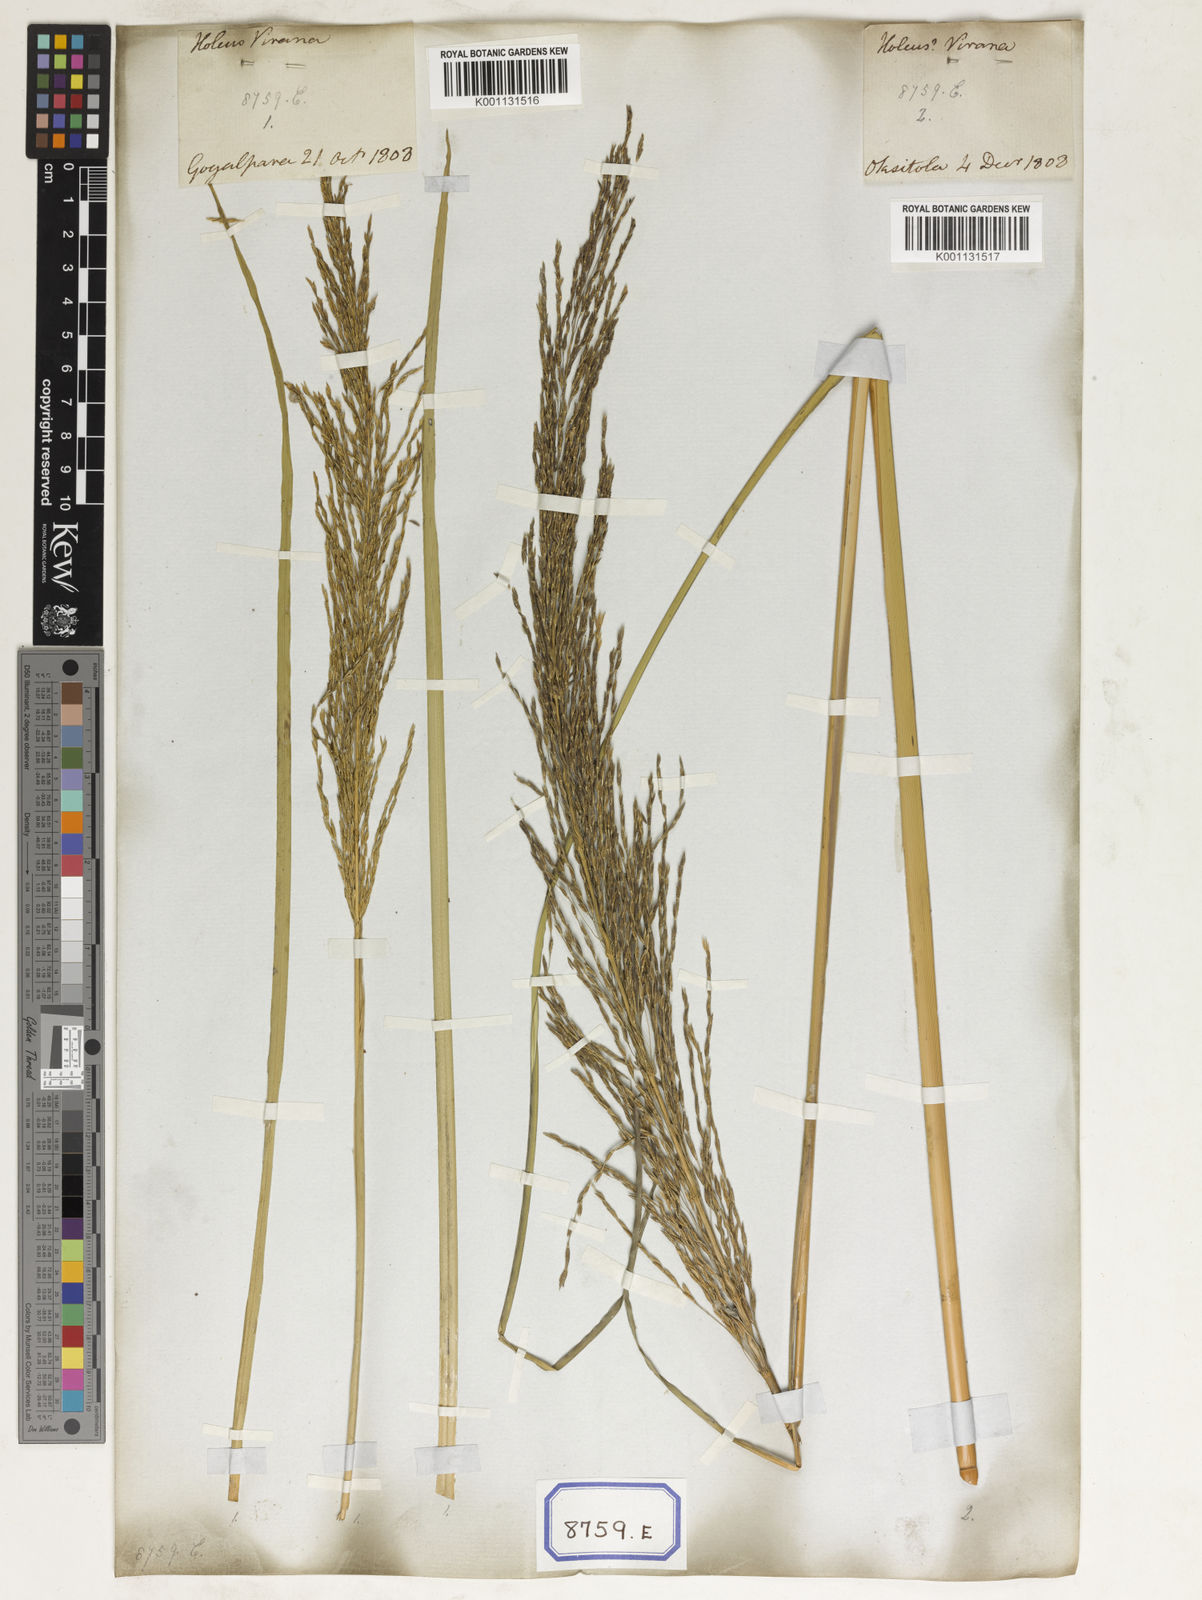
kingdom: Plantae
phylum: Tracheophyta
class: Liliopsida
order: Poales
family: Poaceae
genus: Chrysopogon
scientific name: Chrysopogon zizanioides
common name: False beardgrass
